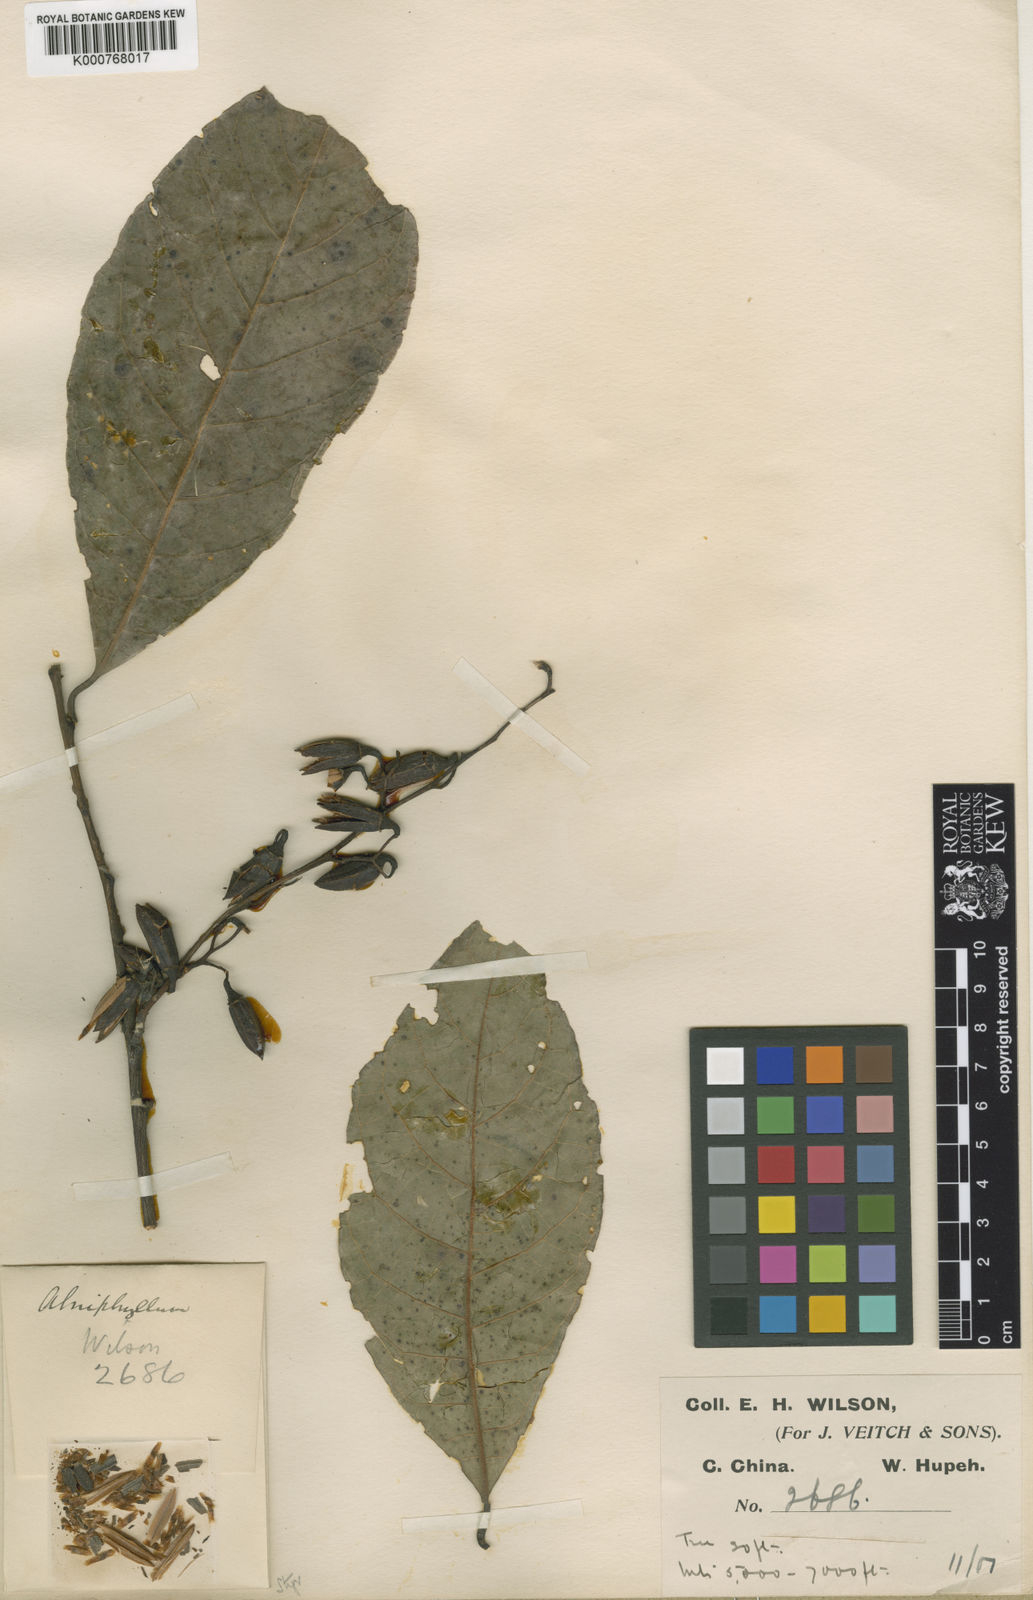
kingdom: Plantae
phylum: Tracheophyta
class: Magnoliopsida
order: Ericales
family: Styracaceae
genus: Alniphyllum
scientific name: Alniphyllum fortunei
